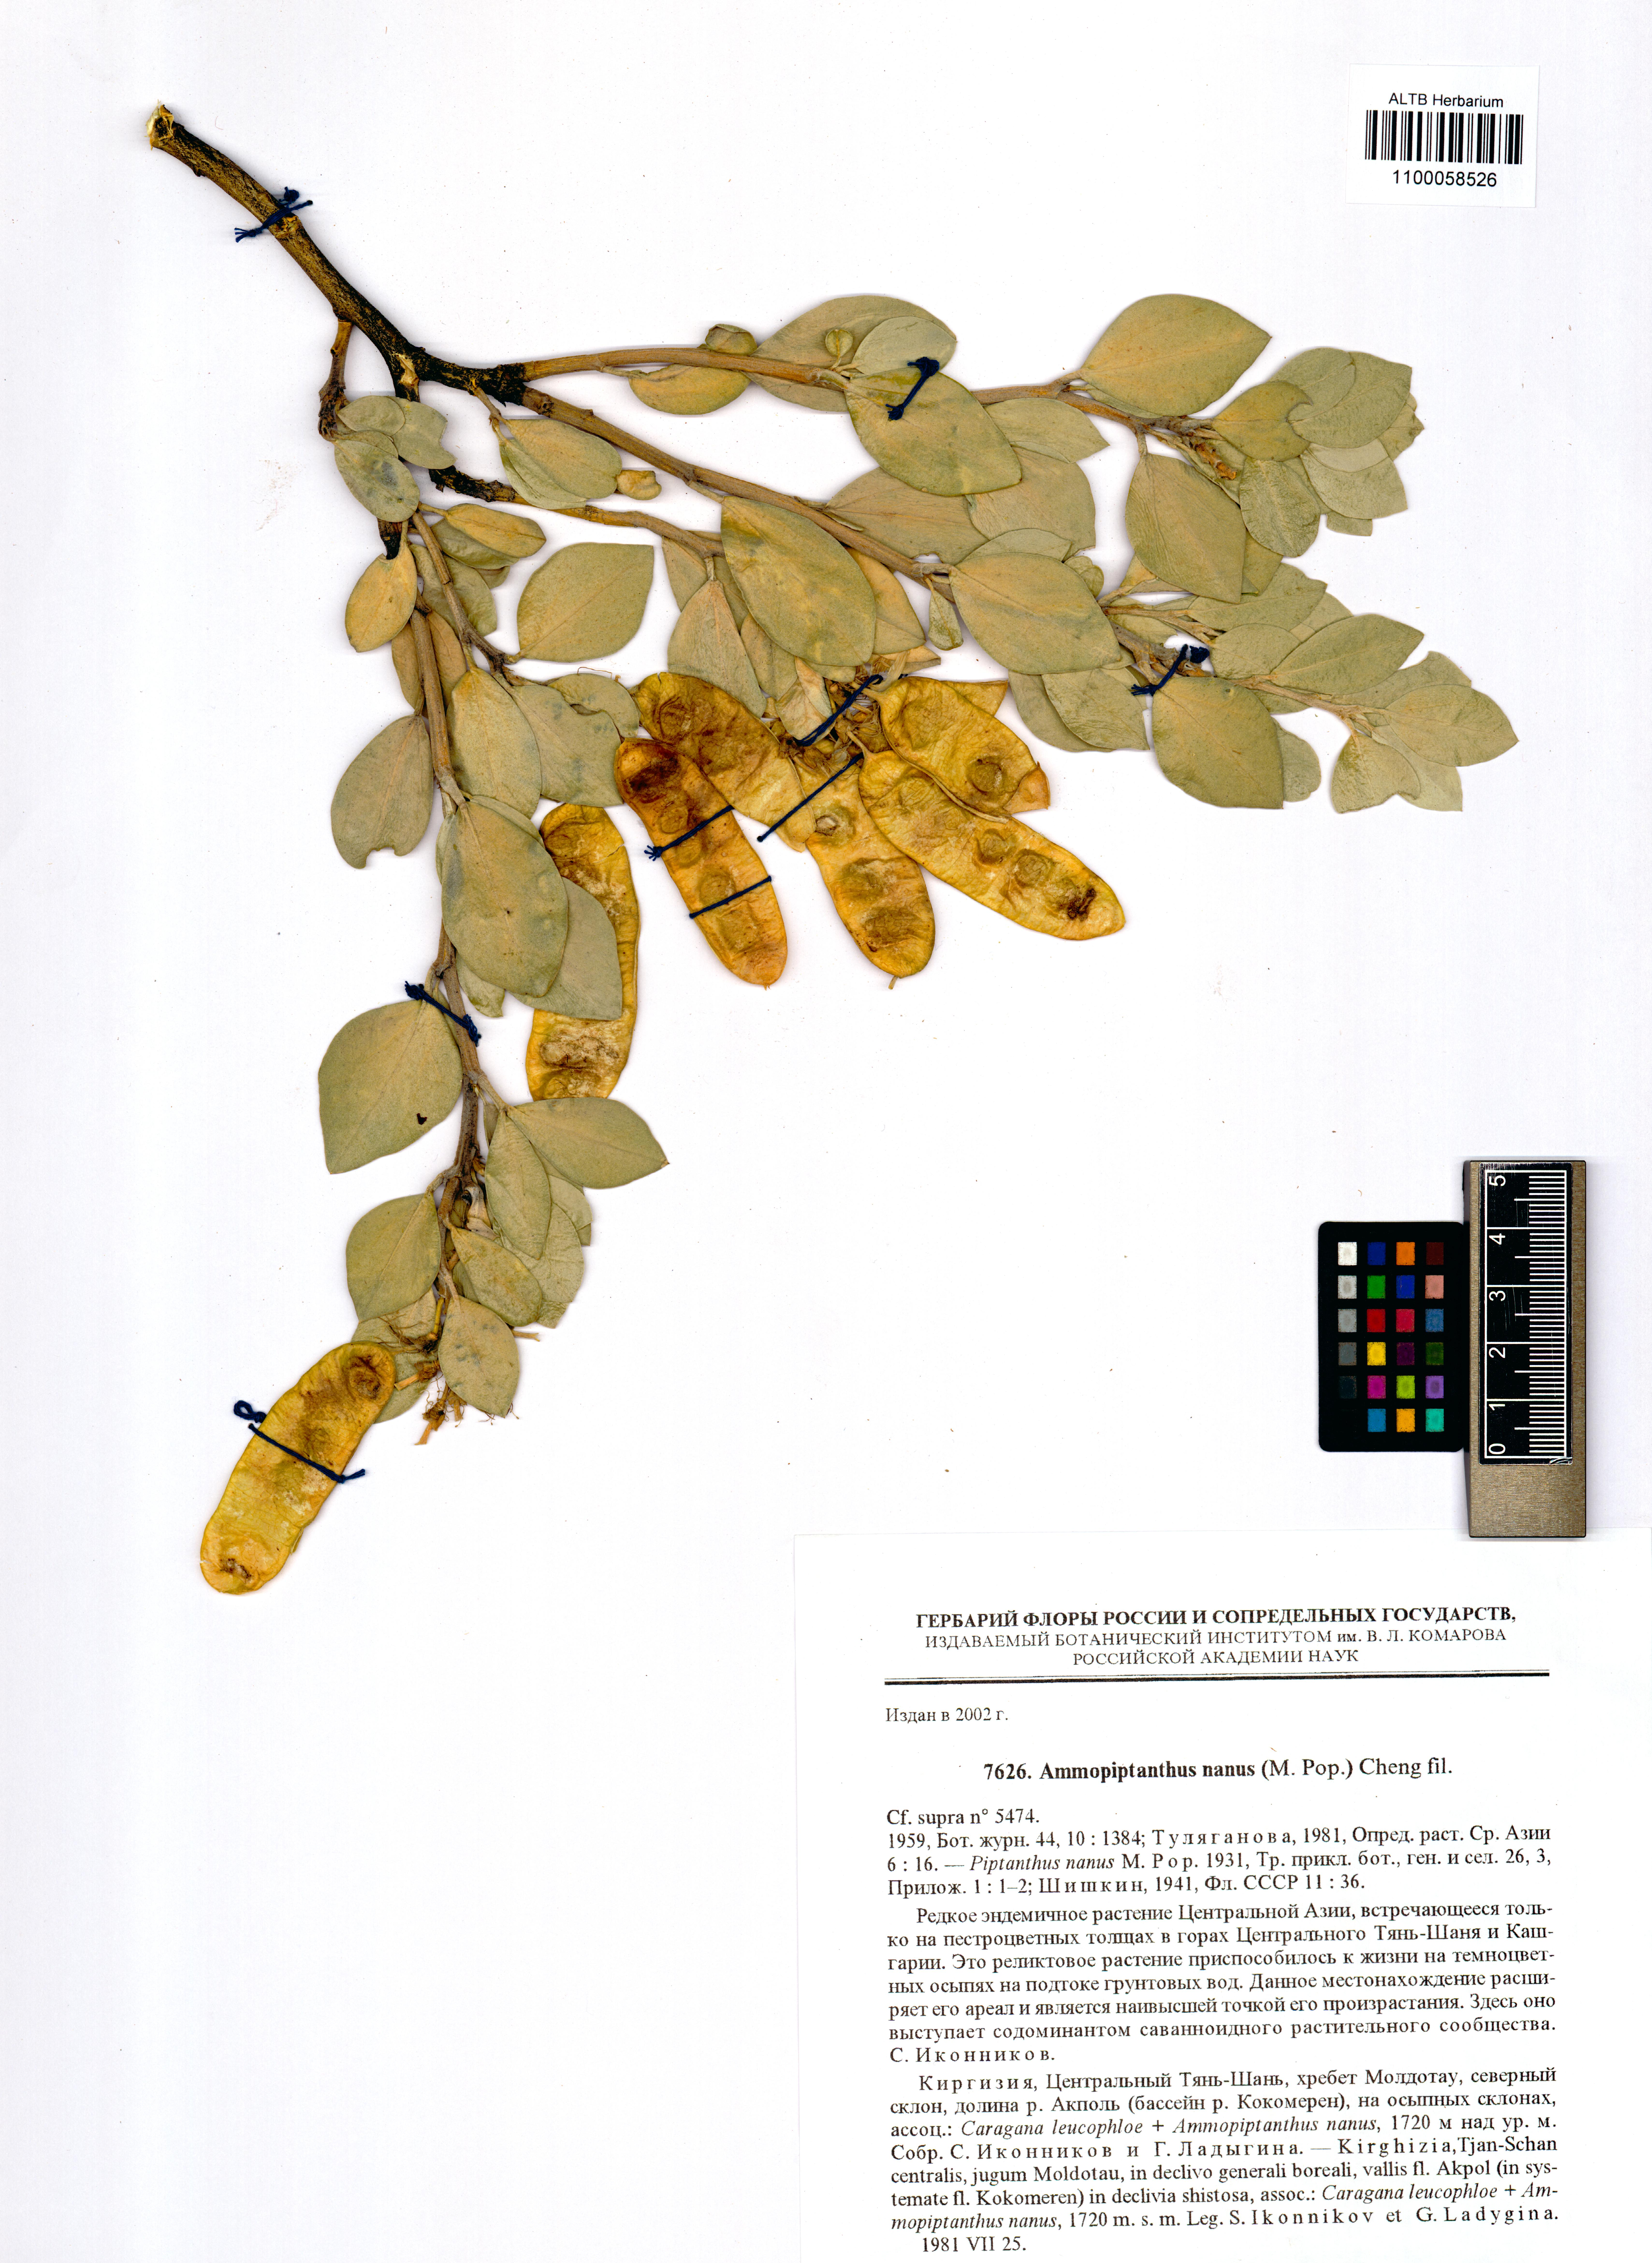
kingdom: Plantae
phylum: Tracheophyta
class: Magnoliopsida
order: Fabales
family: Fabaceae
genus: Ammopiptanthus
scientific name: Ammopiptanthus nanus
